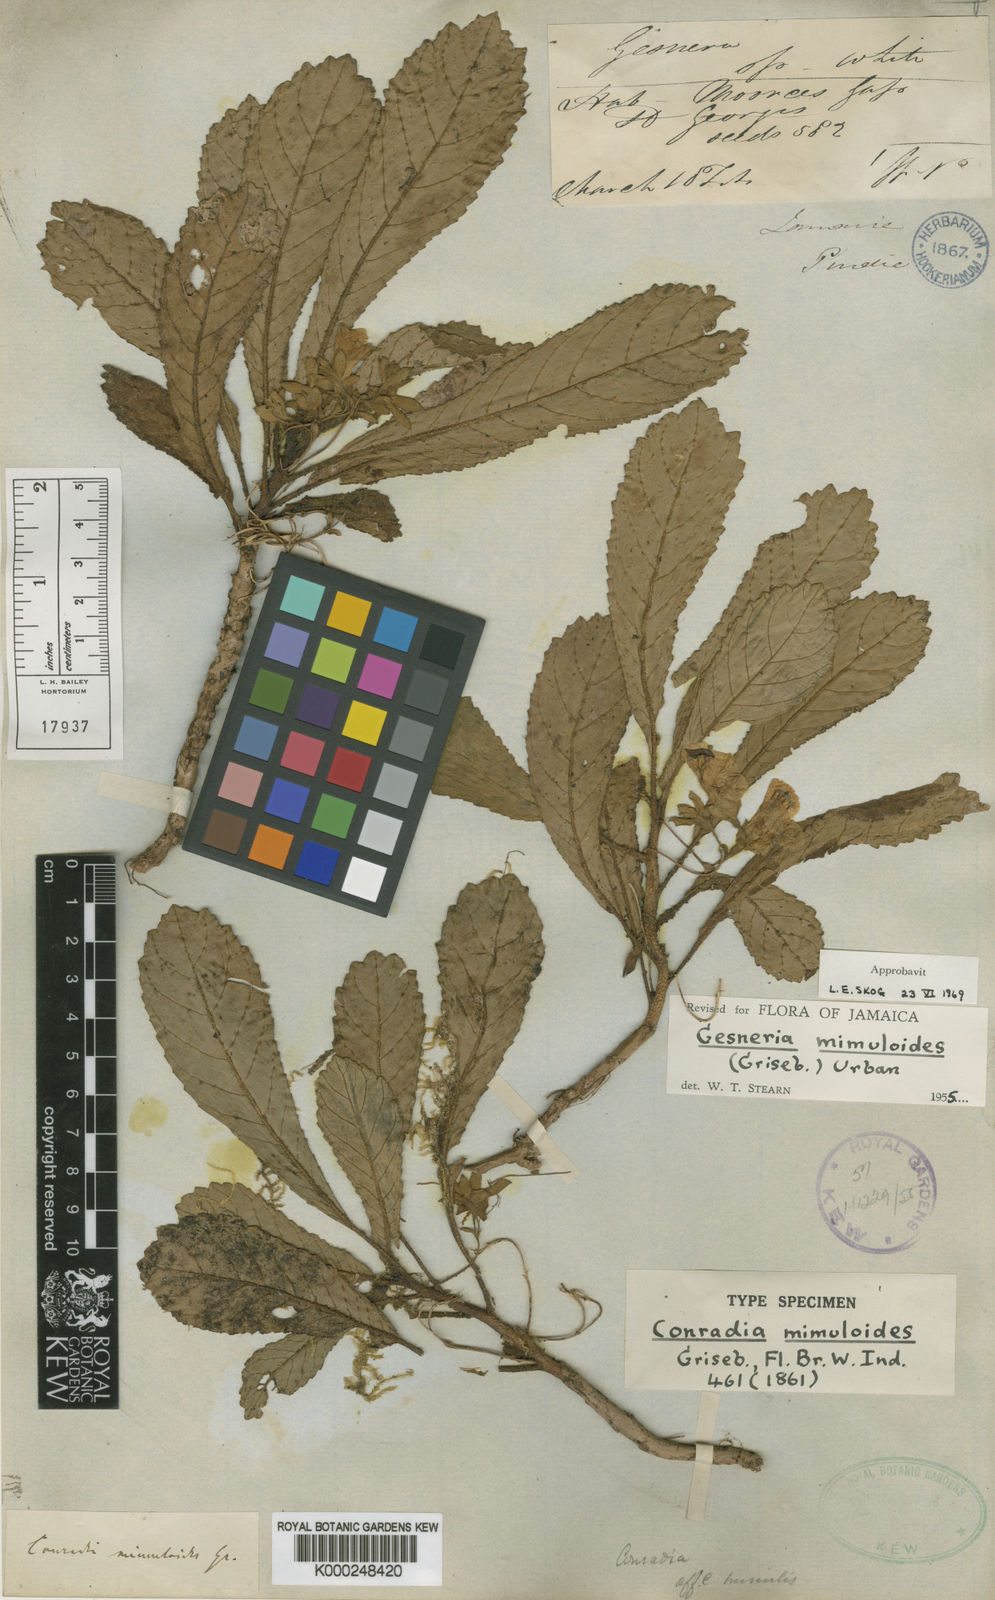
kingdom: Plantae
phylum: Tracheophyta
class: Magnoliopsida
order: Lamiales
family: Gesneriaceae
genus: Gesneria
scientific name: Gesneria pumila
